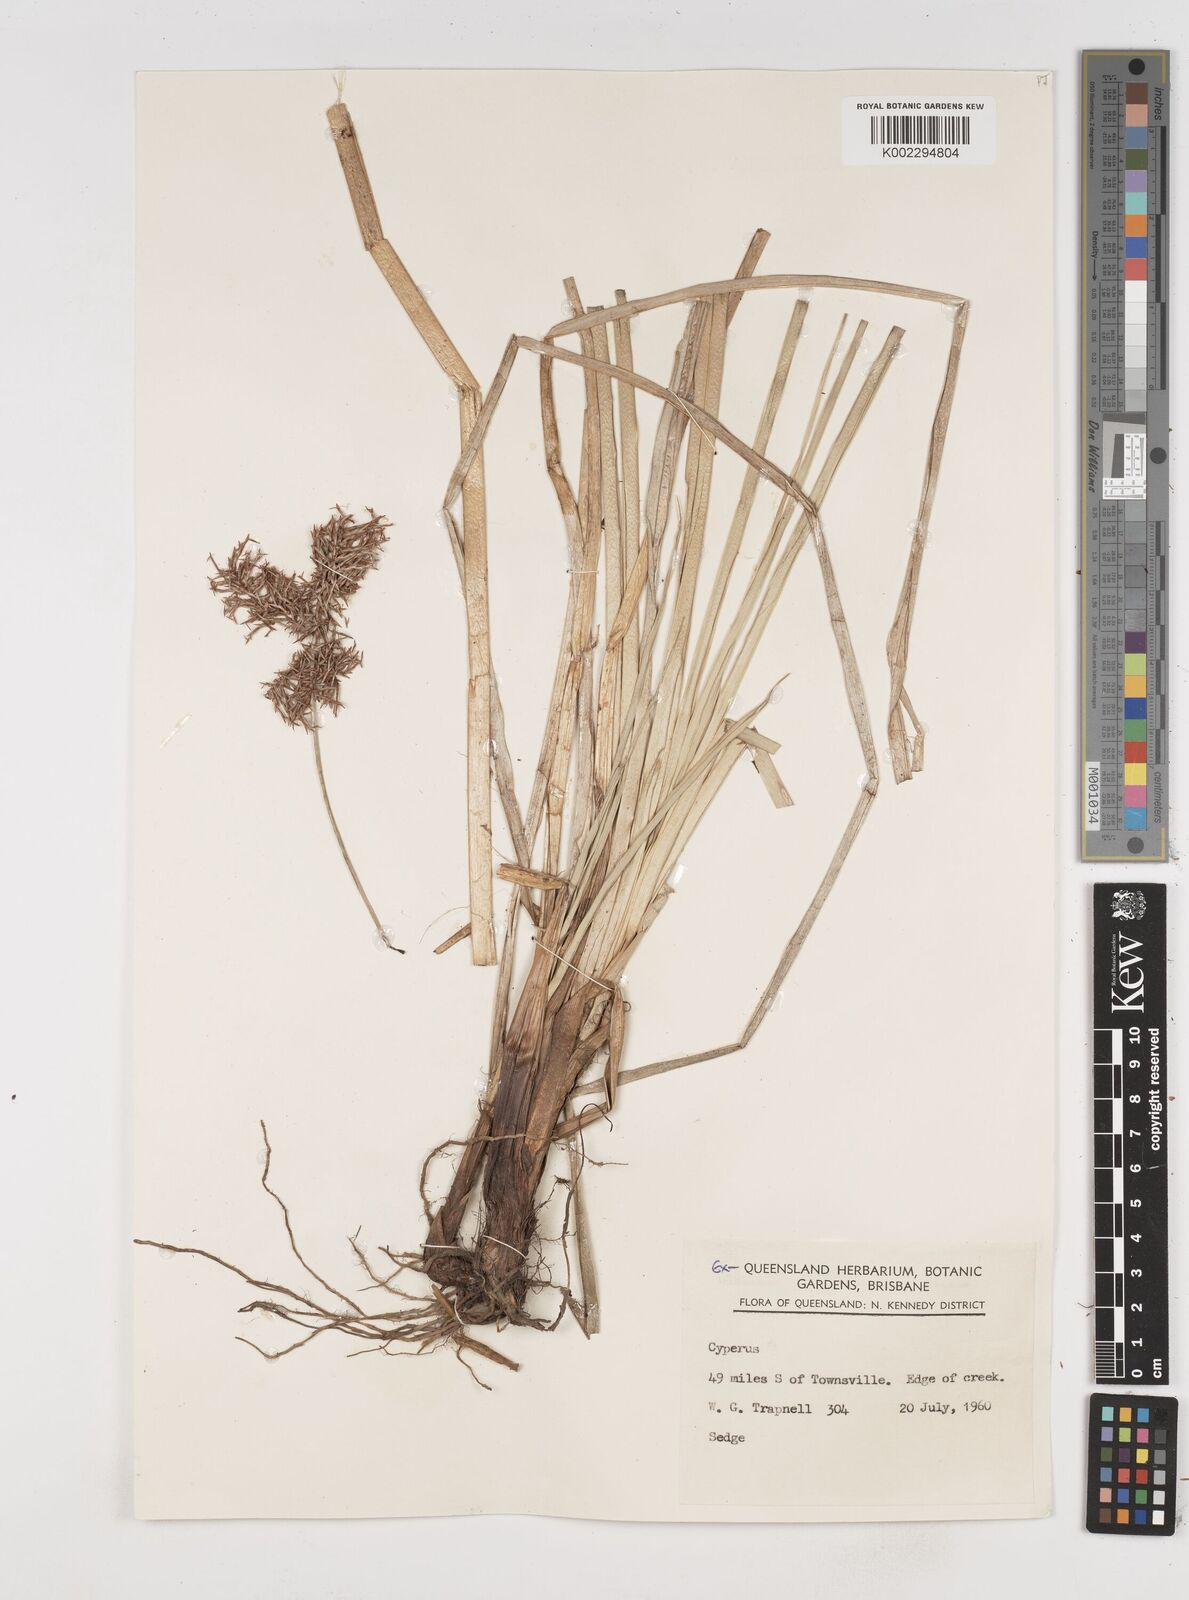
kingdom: Plantae
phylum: Tracheophyta
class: Liliopsida
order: Poales
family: Cyperaceae
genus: Cyperus
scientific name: Cyperus odoratus
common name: Fragrant flatsedge
